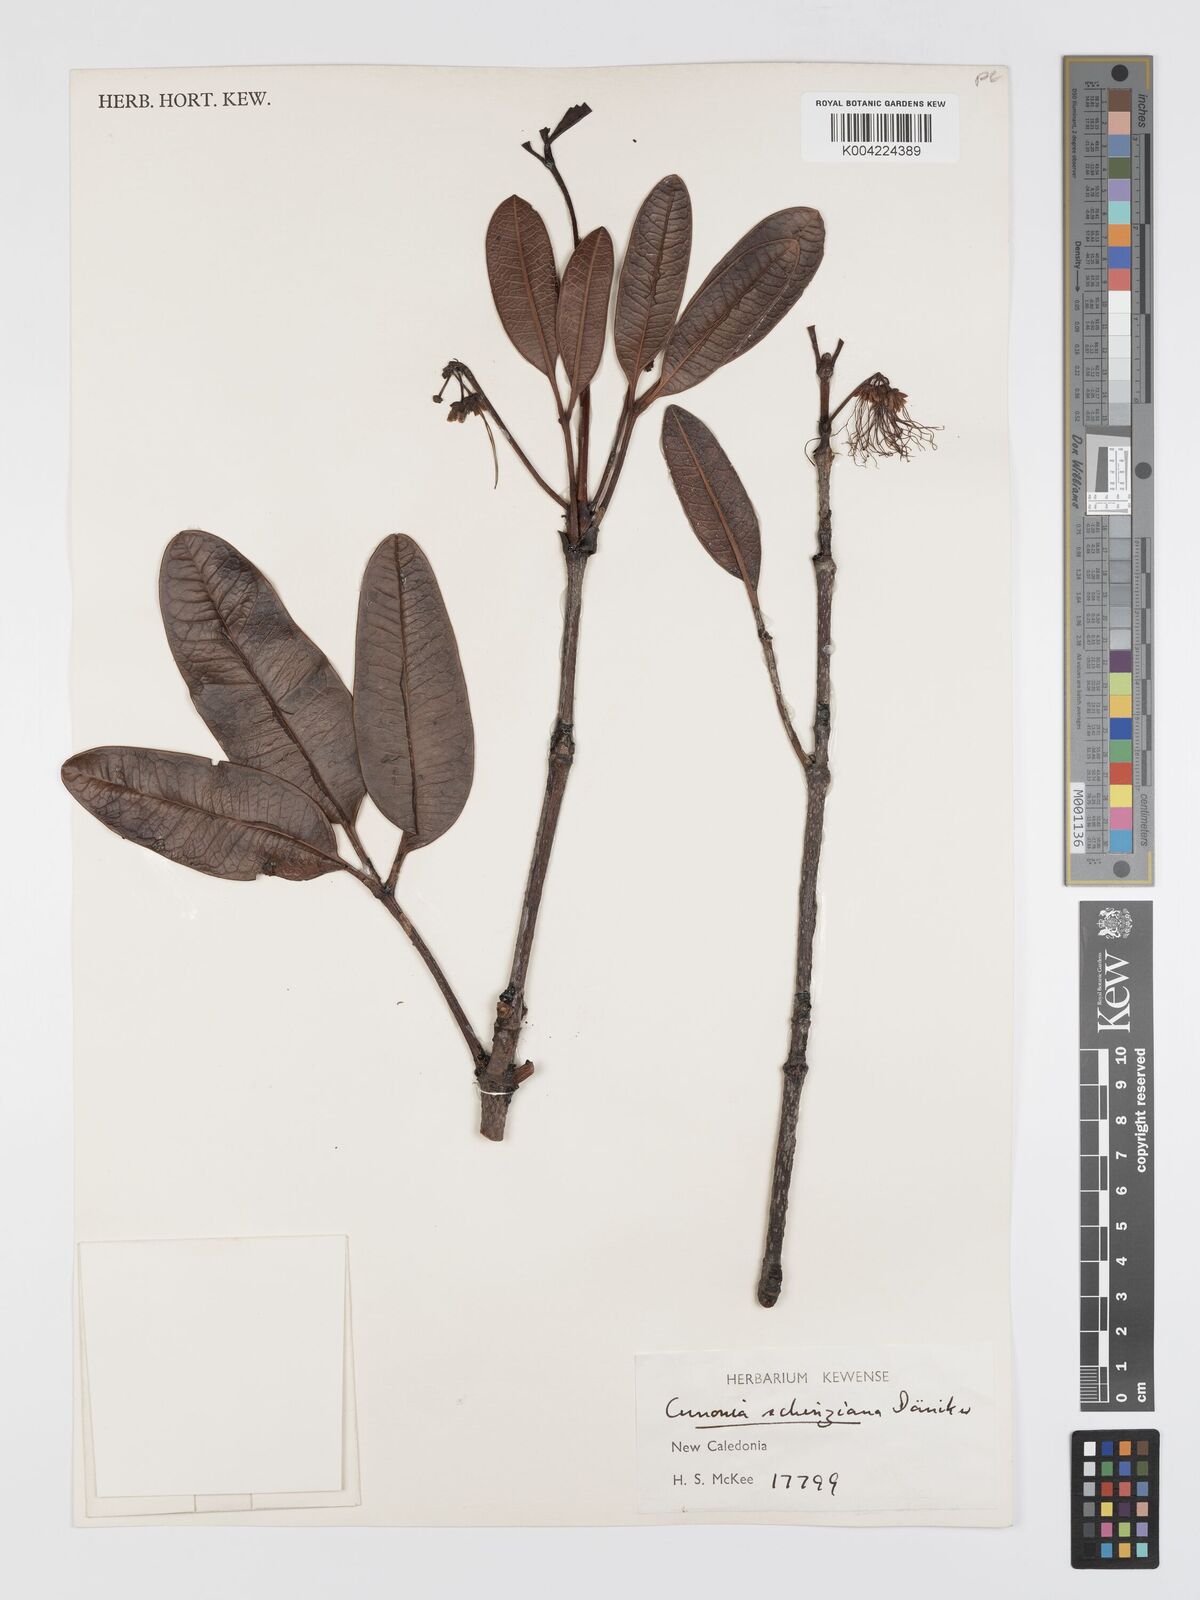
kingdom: Plantae
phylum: Tracheophyta
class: Magnoliopsida
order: Oxalidales
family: Cunoniaceae
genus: Cunonia
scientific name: Cunonia schinziana
